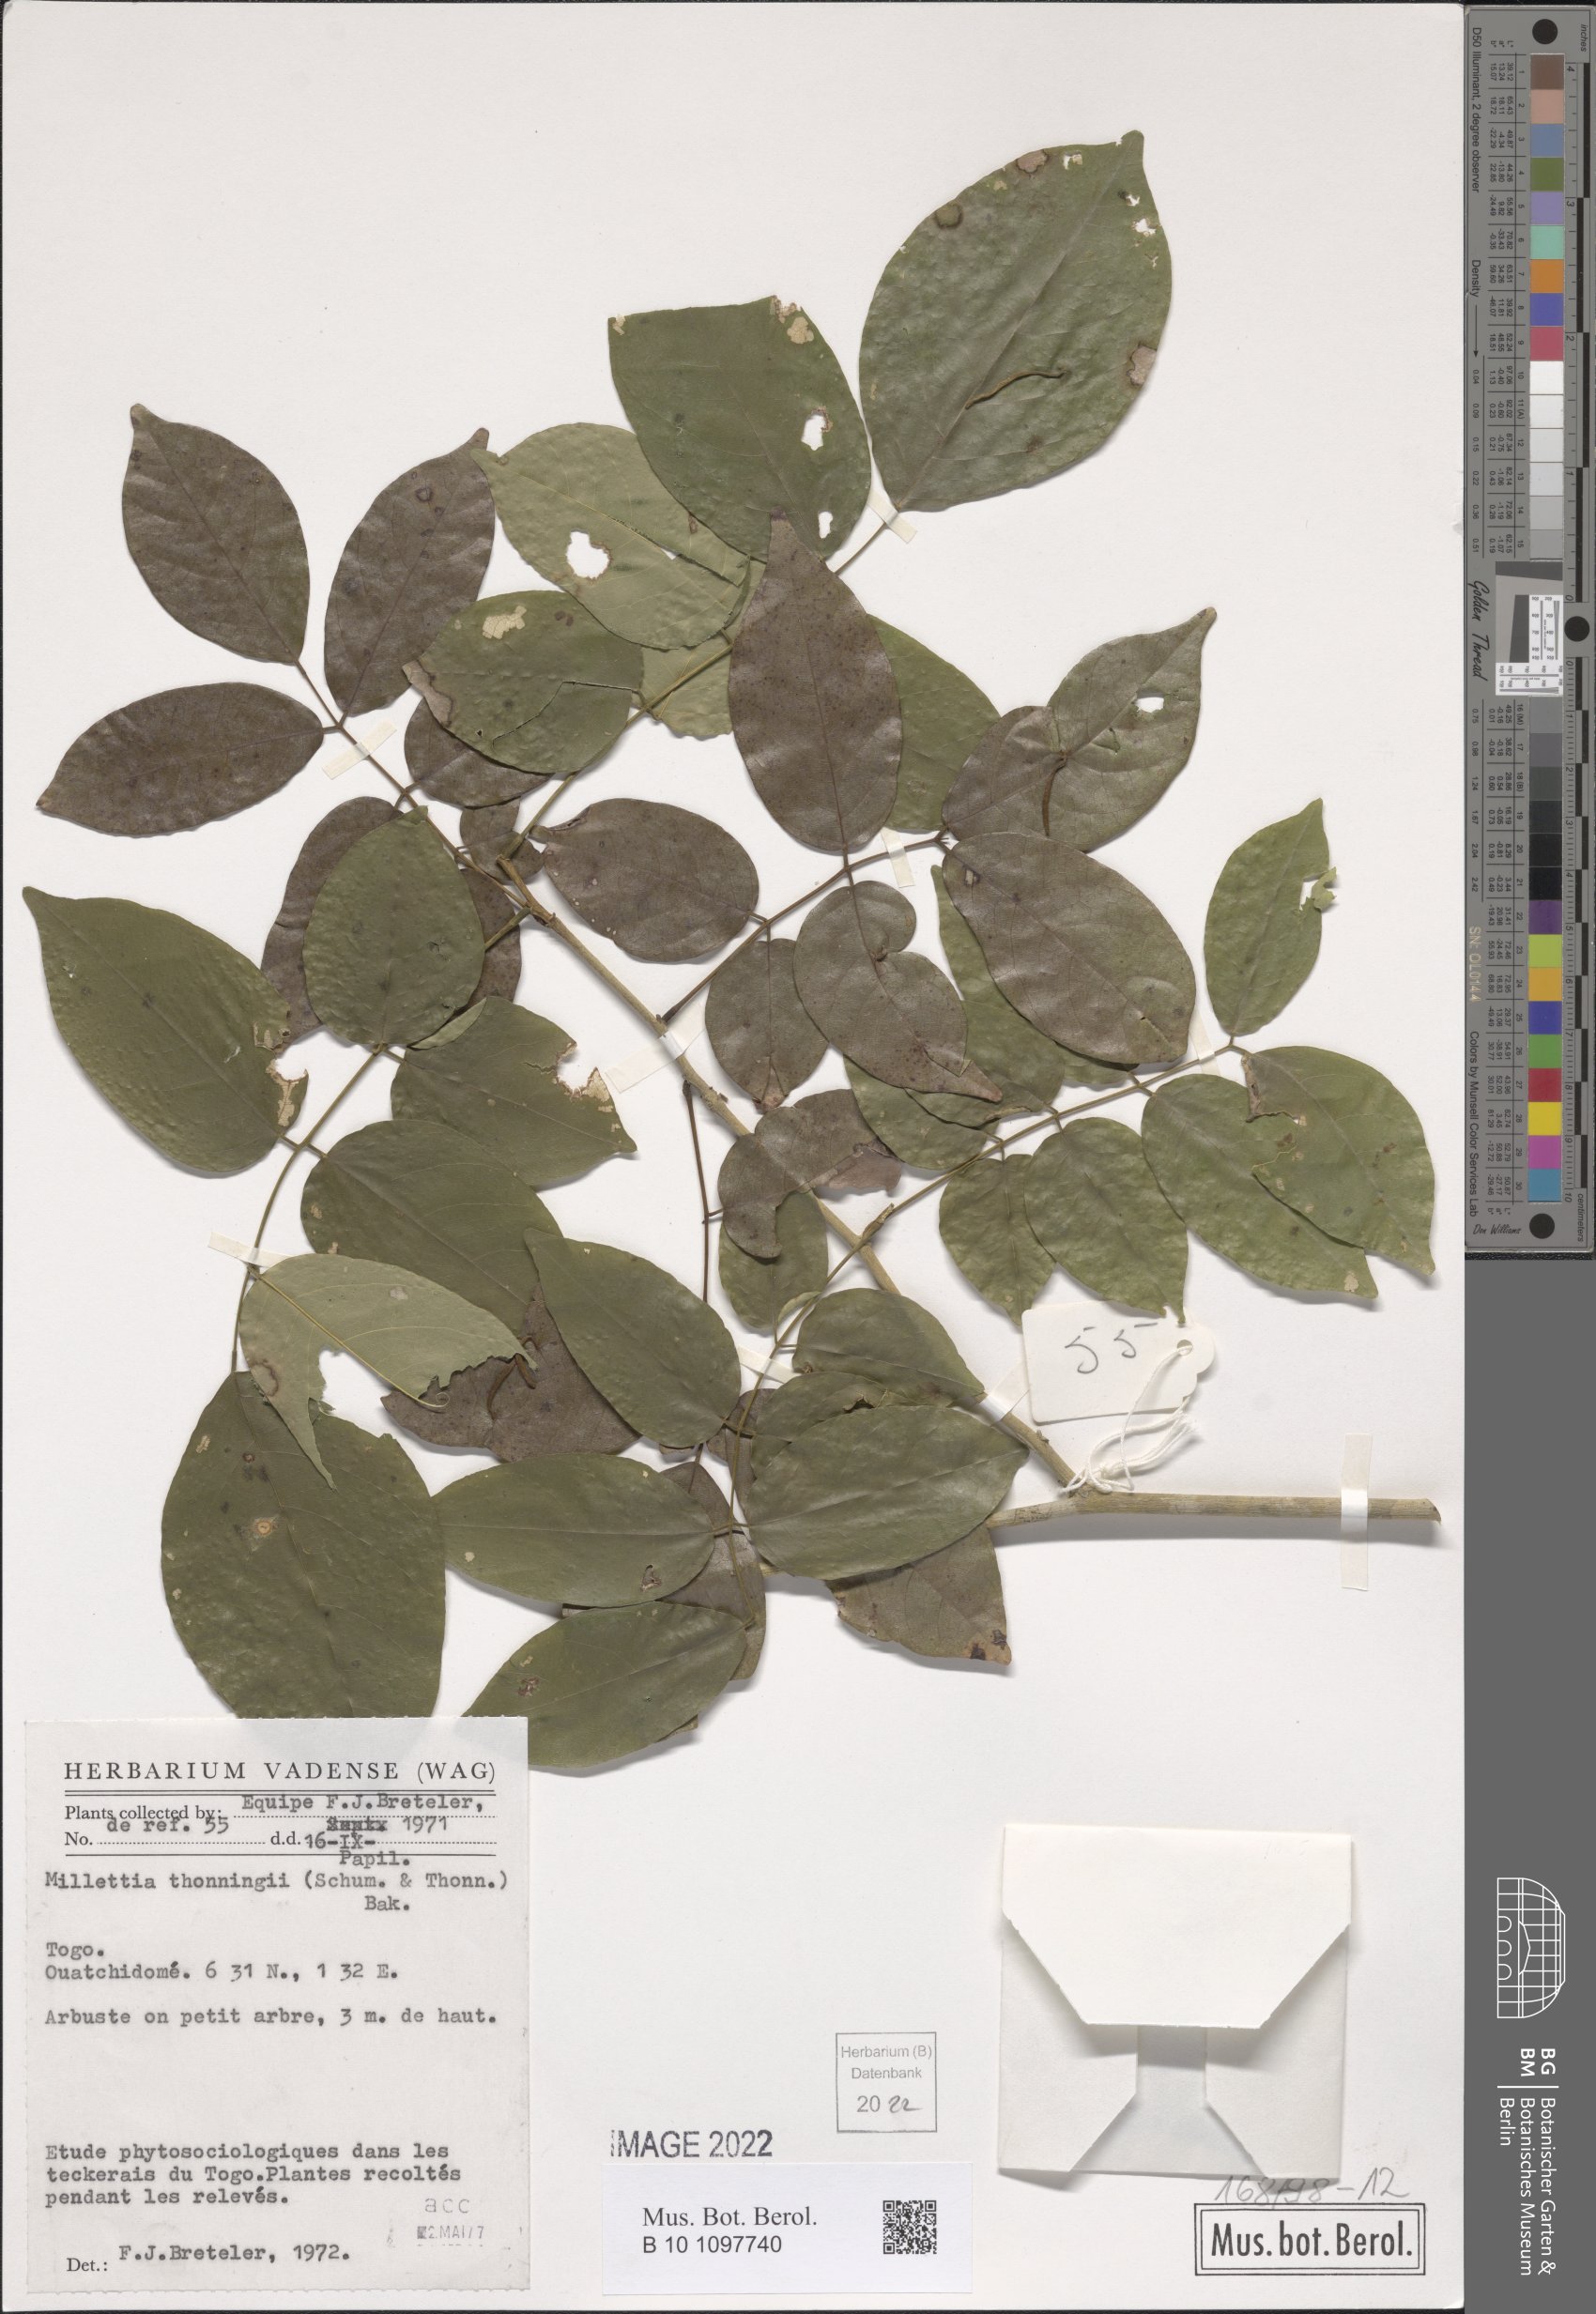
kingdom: Plantae
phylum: Tracheophyta
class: Magnoliopsida
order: Fabales
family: Fabaceae
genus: Millettia
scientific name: Millettia thonningii
